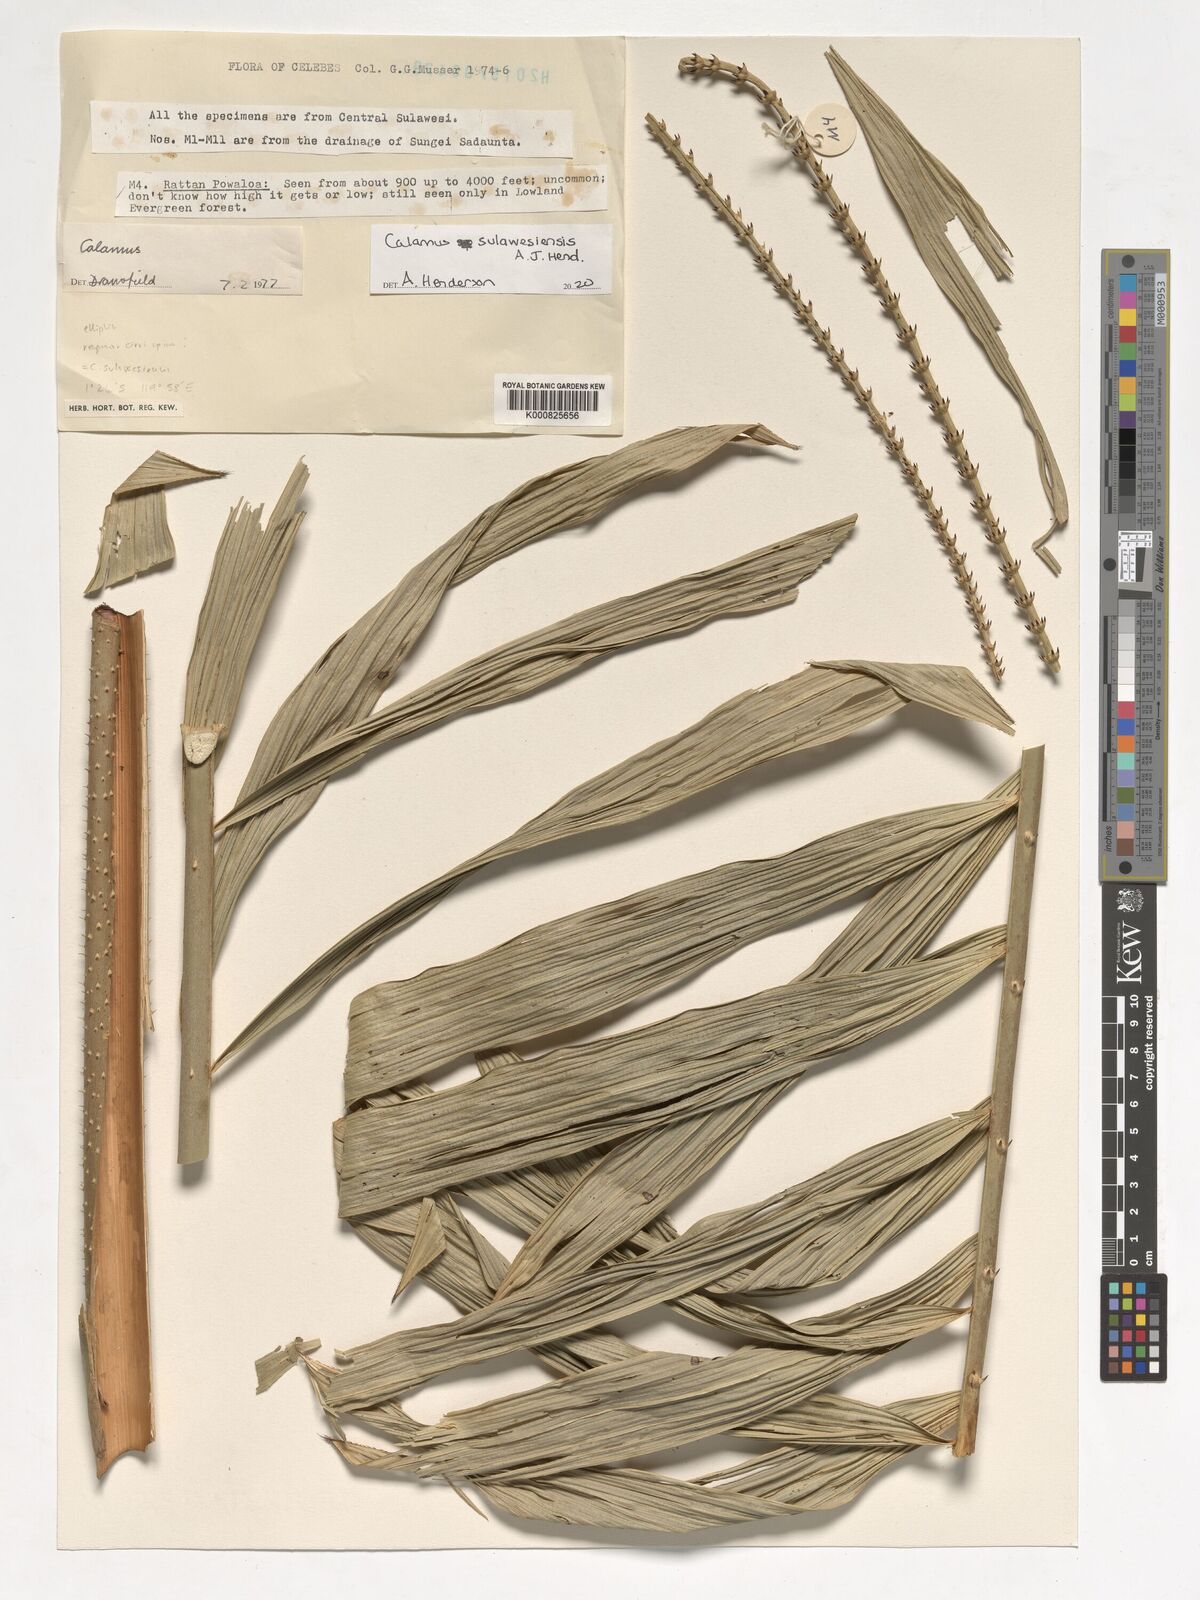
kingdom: Plantae
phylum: Tracheophyta
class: Liliopsida
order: Arecales
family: Arecaceae
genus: Calamus
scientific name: Calamus
